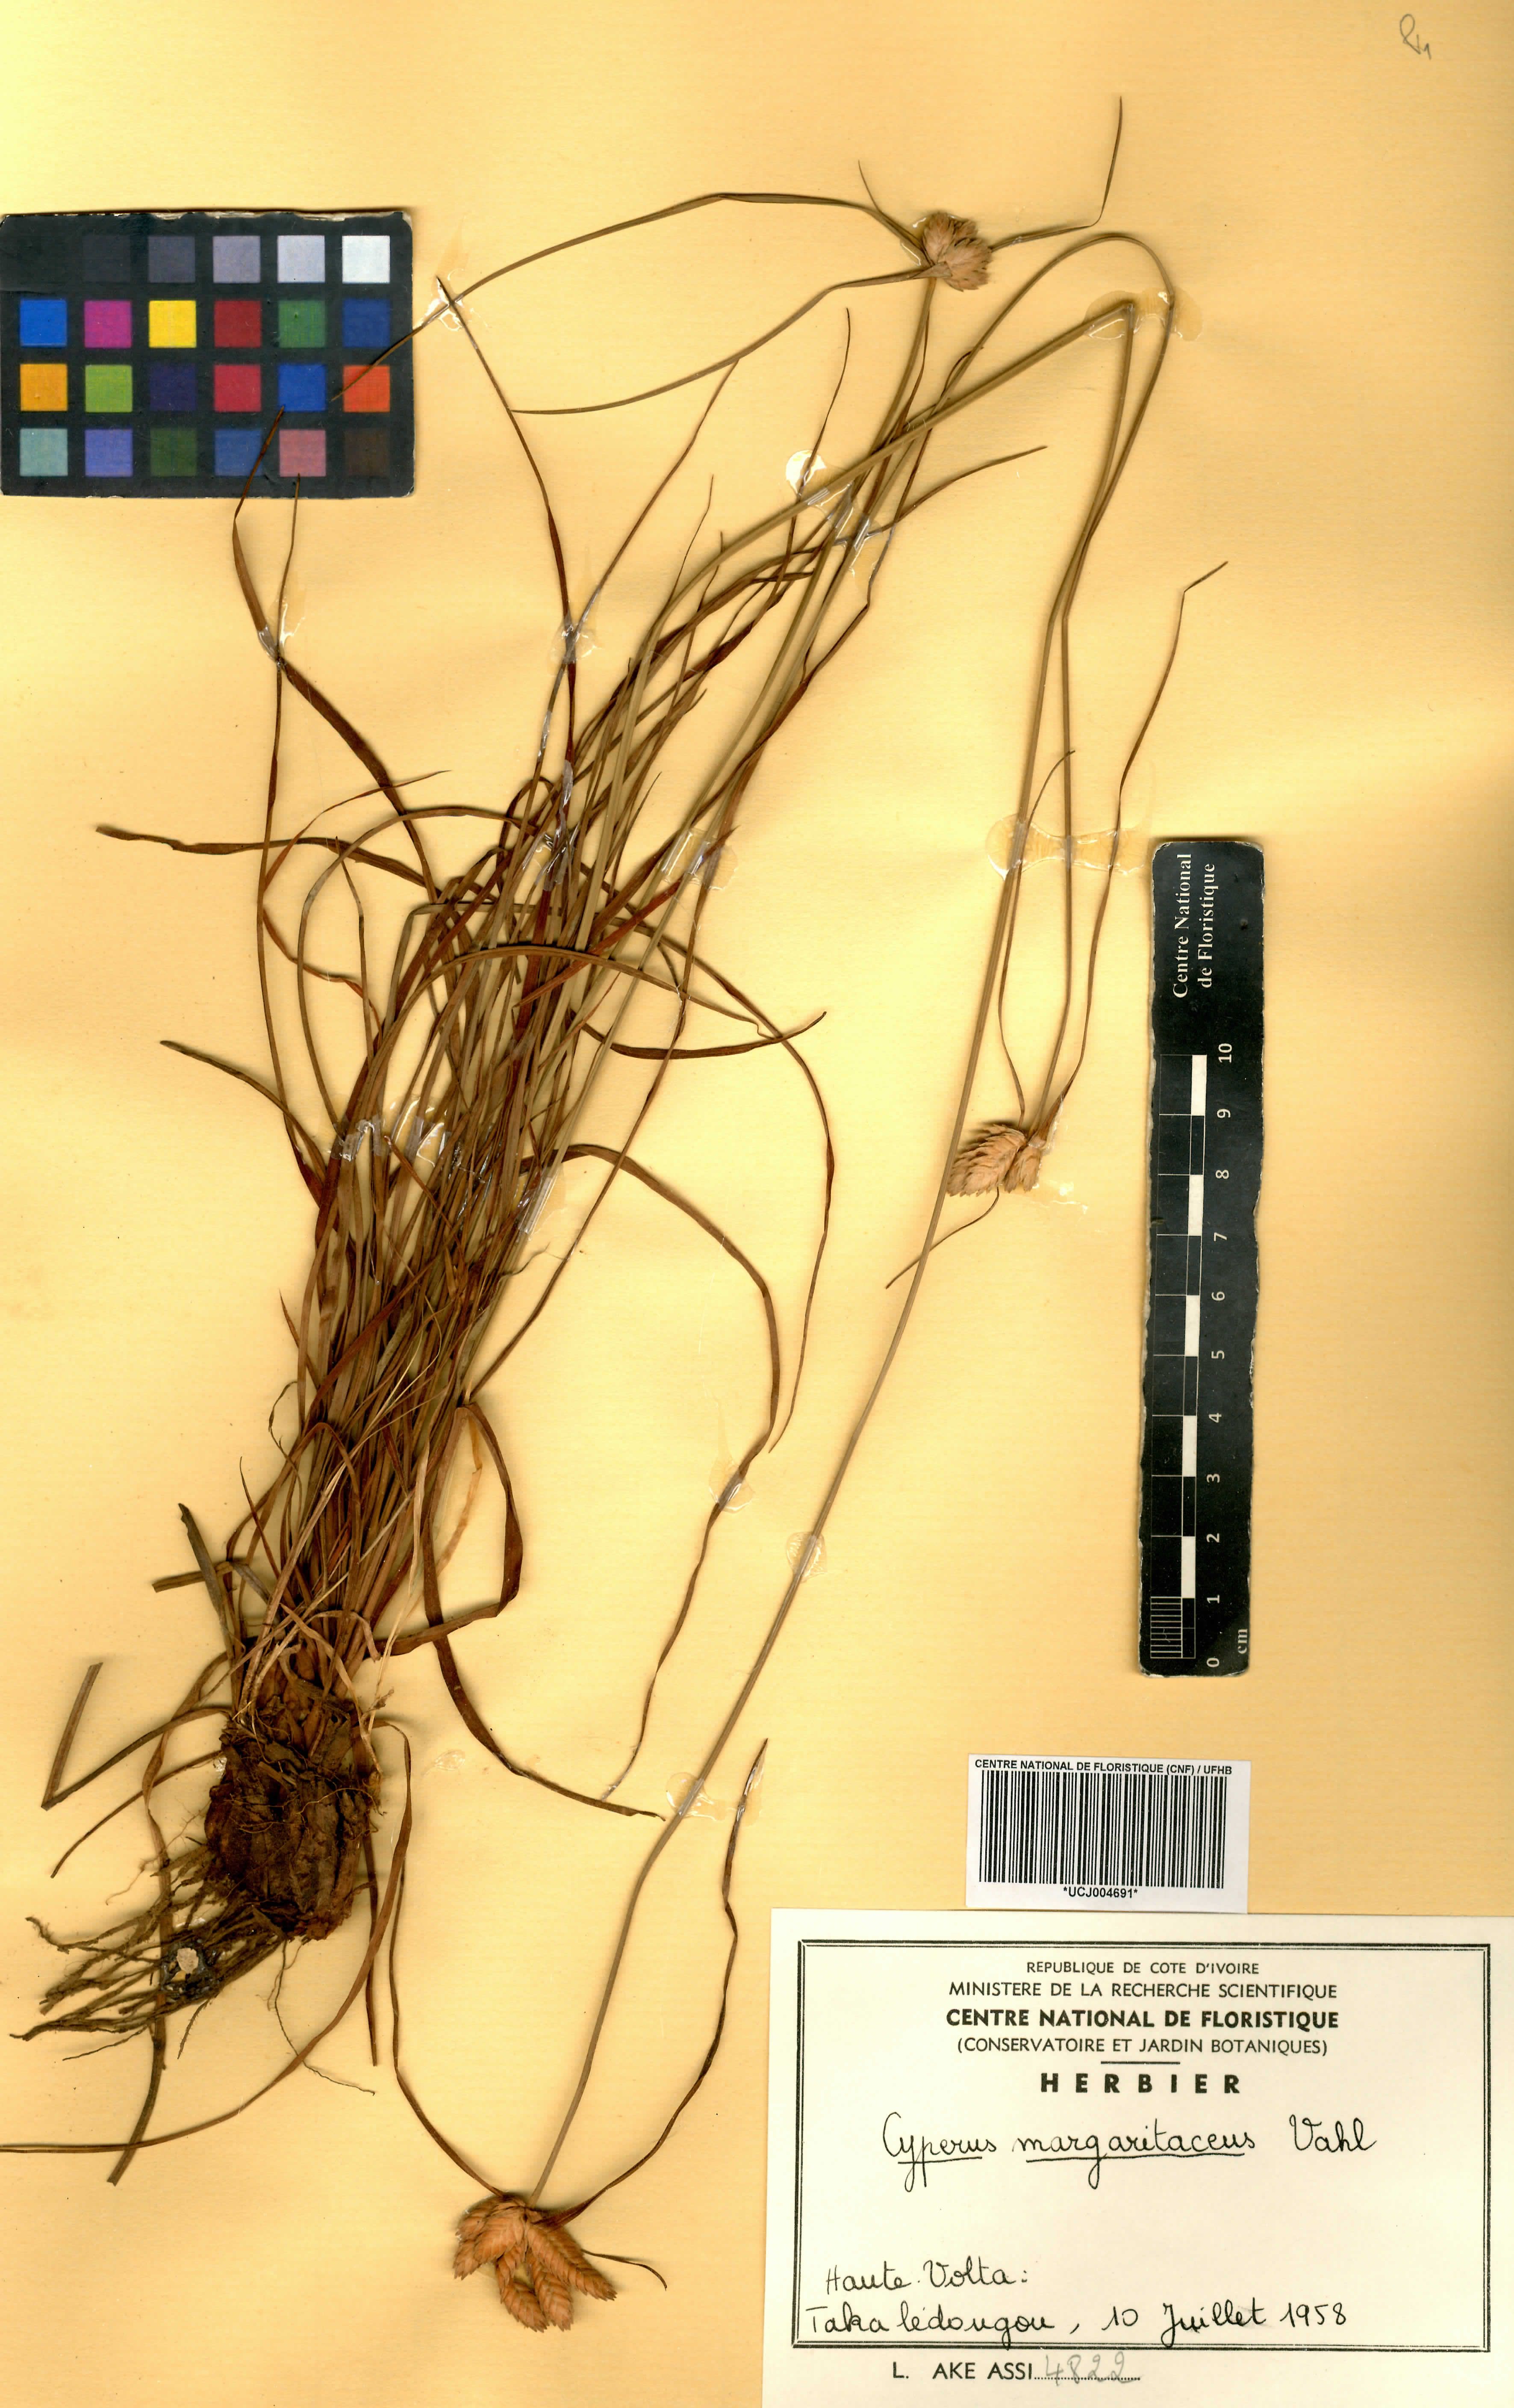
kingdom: Plantae
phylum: Tracheophyta
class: Liliopsida
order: Poales
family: Cyperaceae
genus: Cyperus
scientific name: Cyperus margaritaceus
